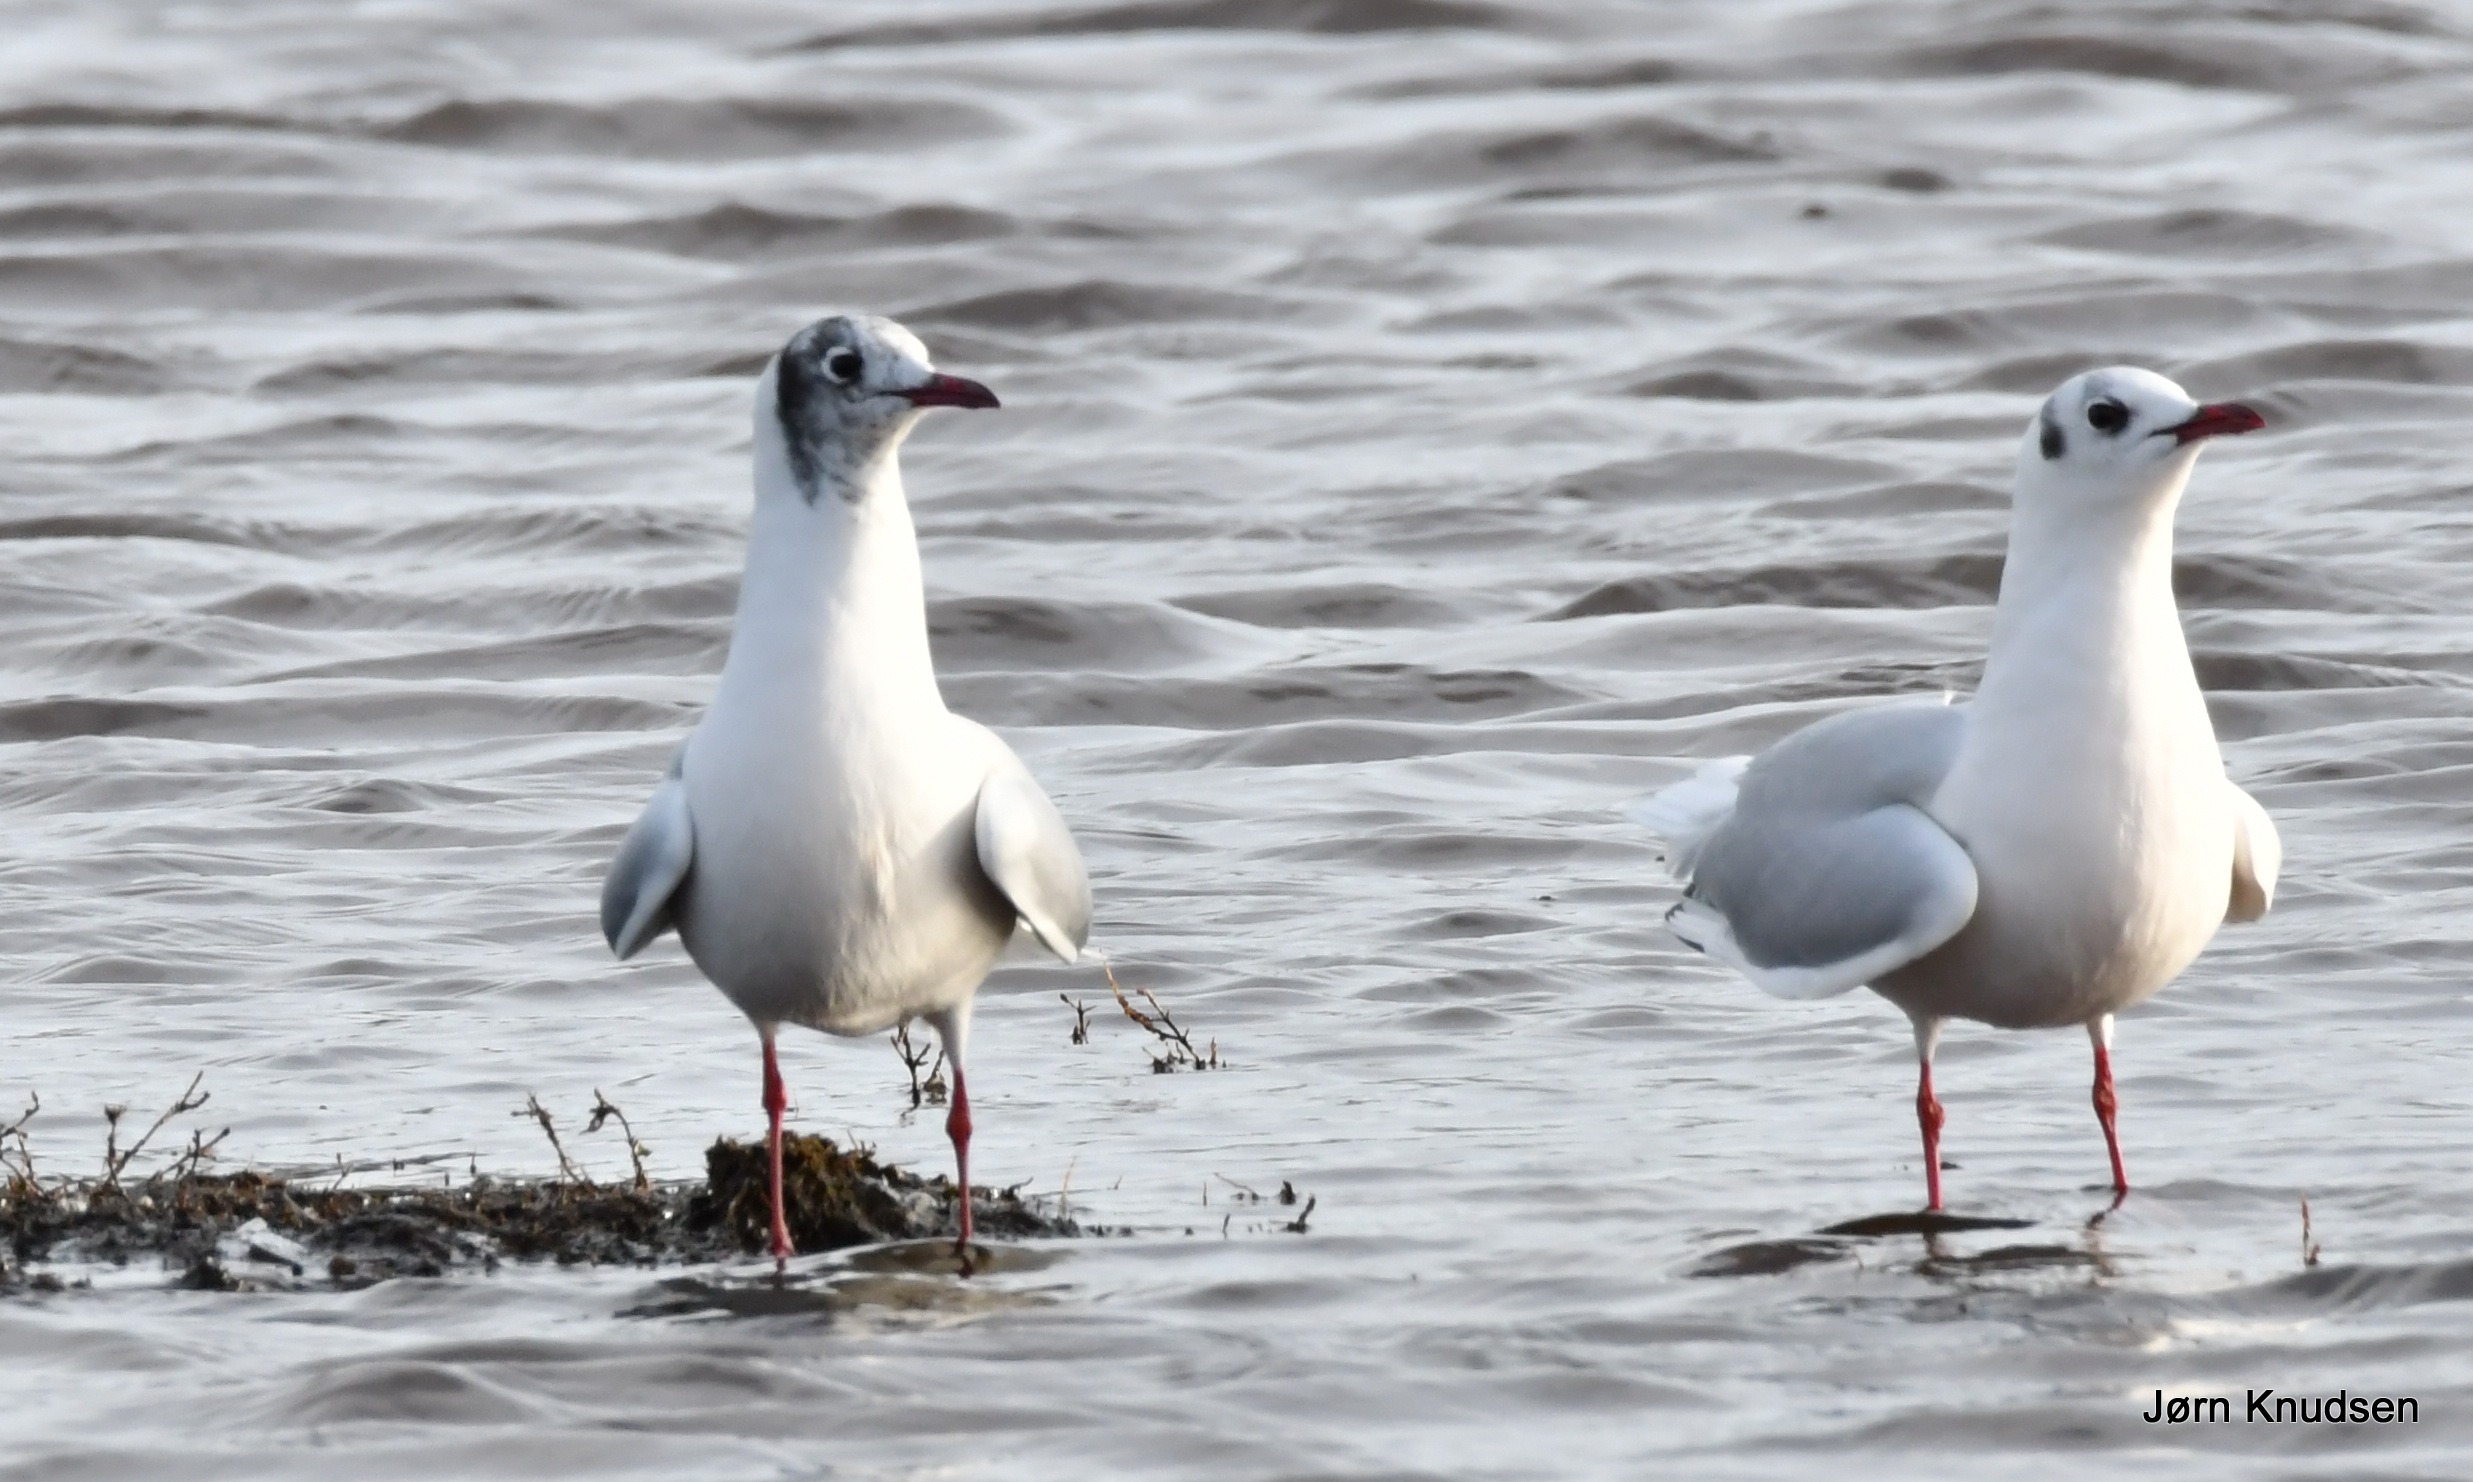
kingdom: Animalia
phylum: Chordata
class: Aves
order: Charadriiformes
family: Laridae
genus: Chroicocephalus
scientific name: Chroicocephalus ridibundus
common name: Hættemåge
